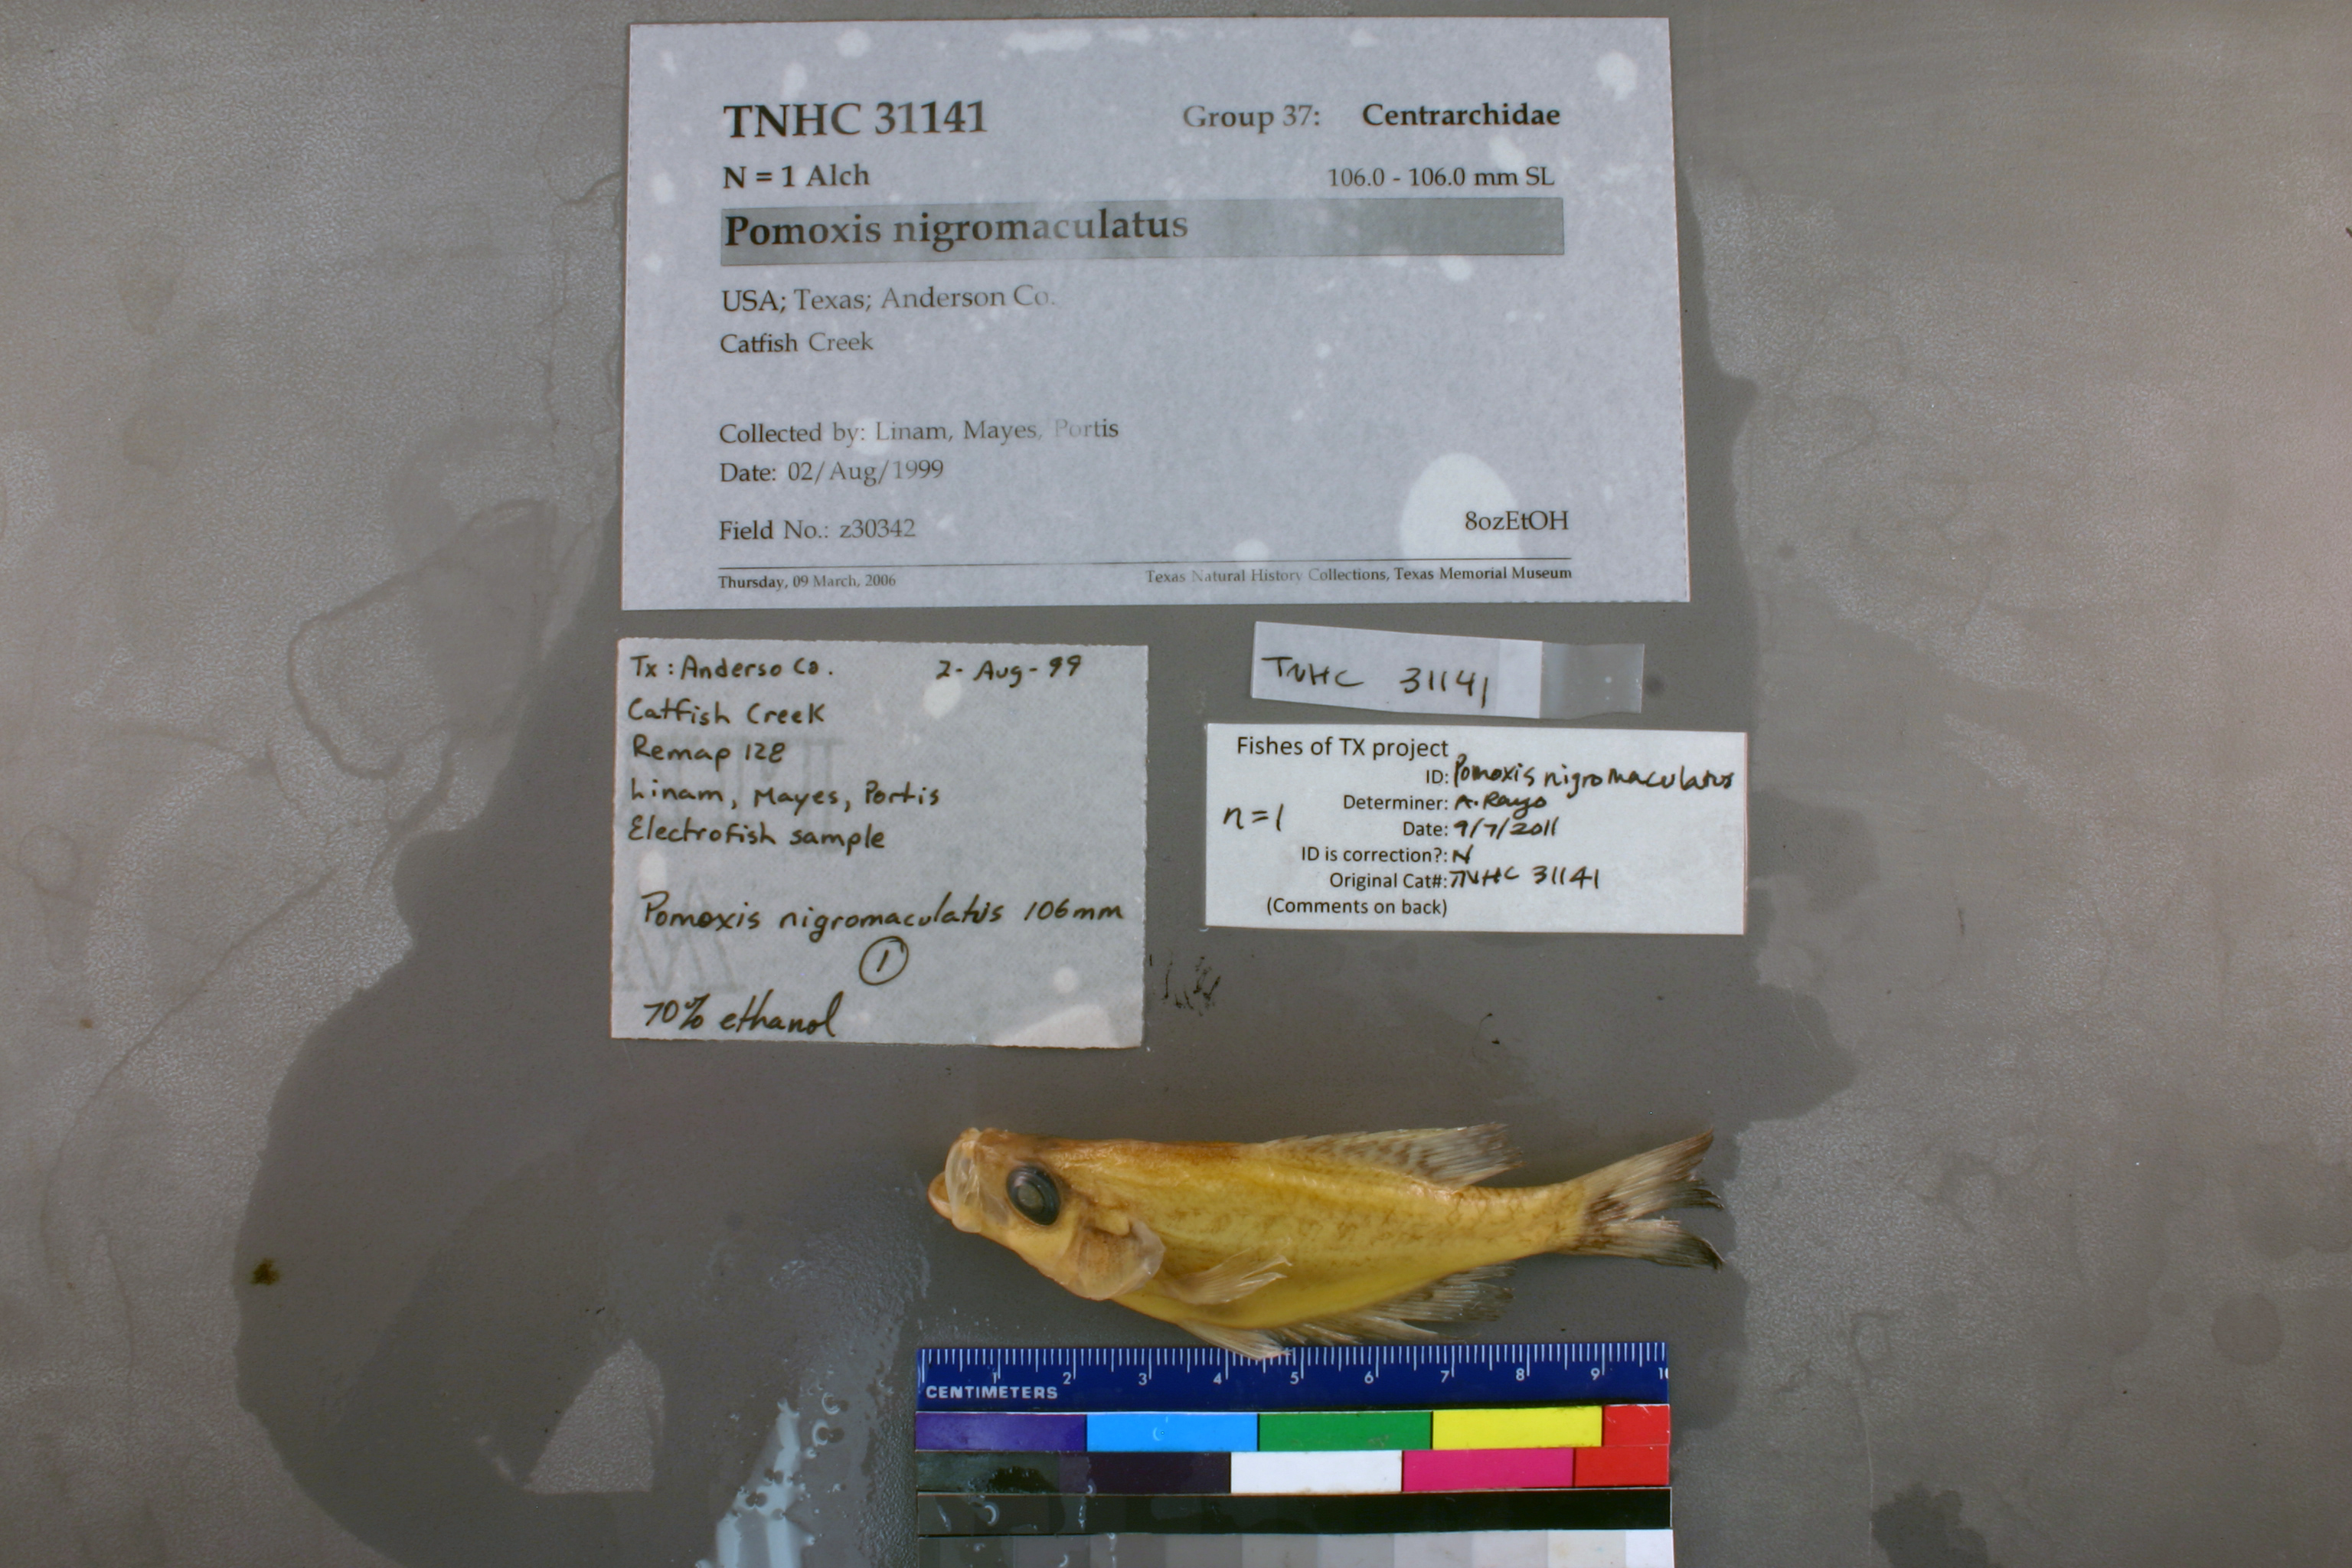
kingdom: Animalia
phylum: Chordata
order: Perciformes
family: Centrarchidae
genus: Pomoxis
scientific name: Pomoxis nigromaculatus
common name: Black crappie
